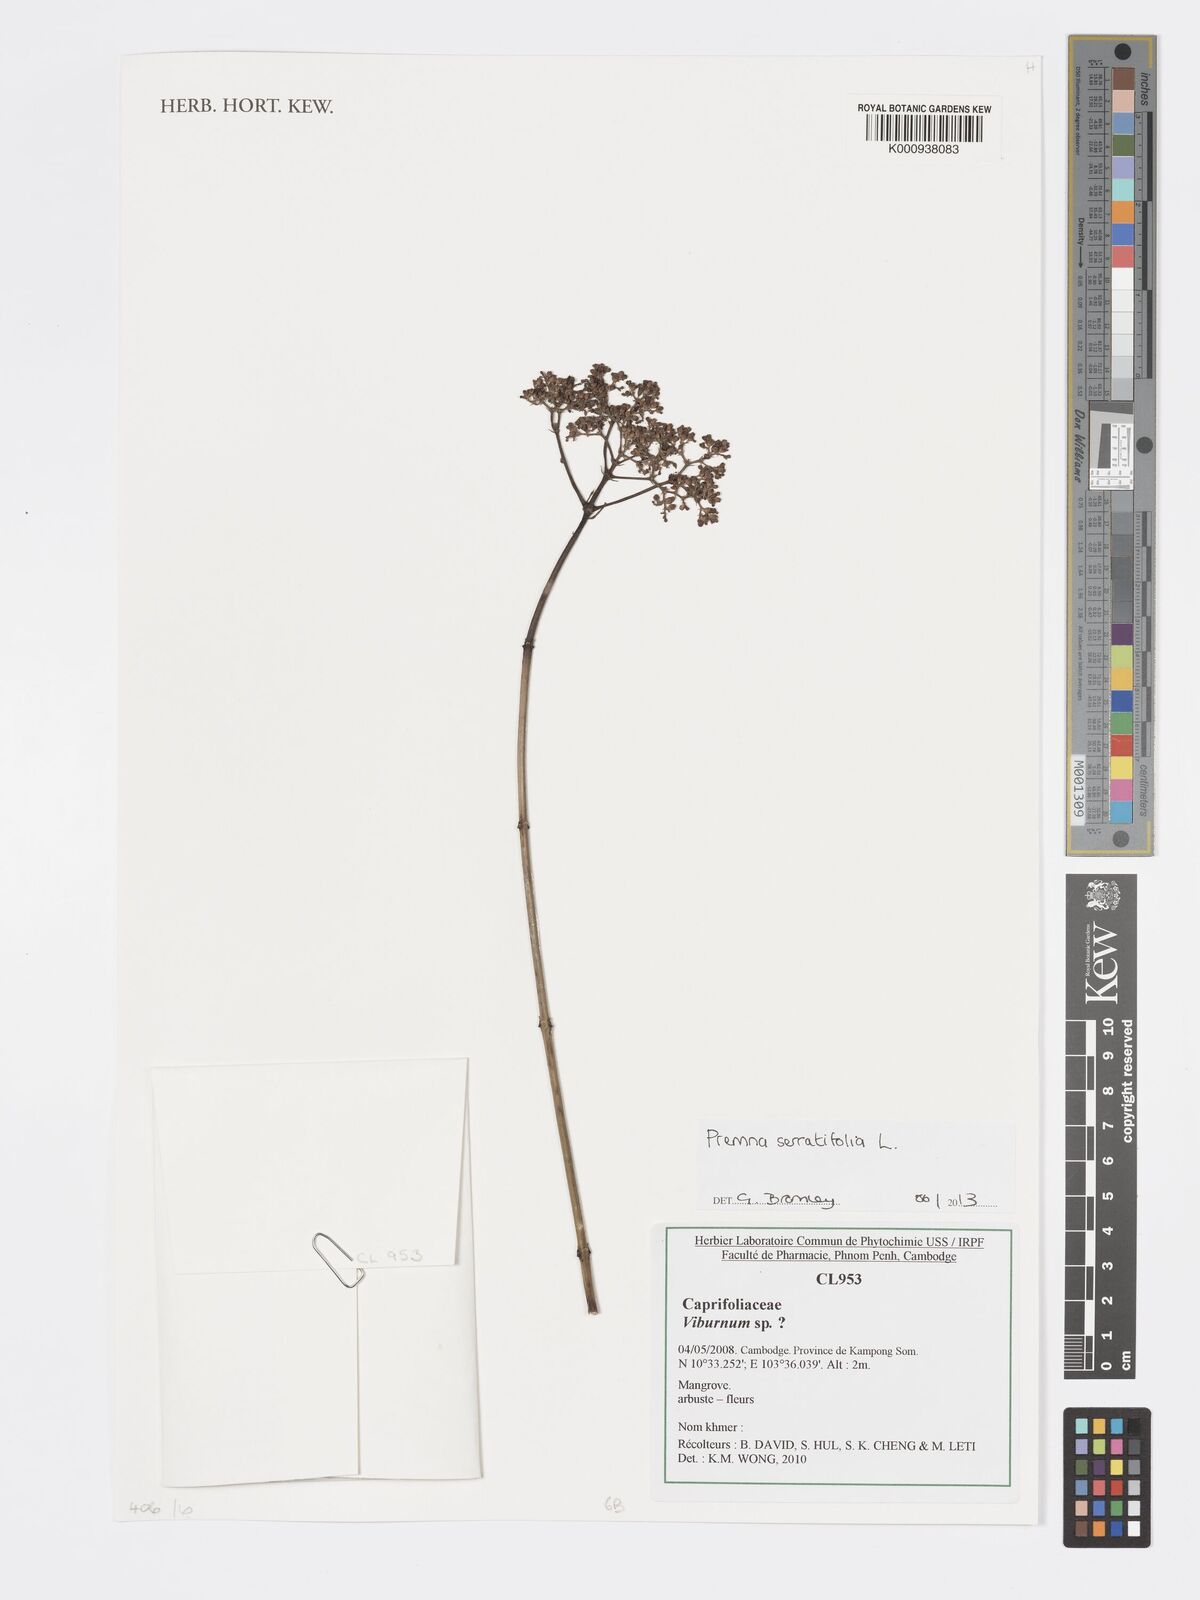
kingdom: Plantae
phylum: Tracheophyta
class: Magnoliopsida
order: Lamiales
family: Lamiaceae
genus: Premna
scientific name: Premna serratifolia
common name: Bastard guelder
